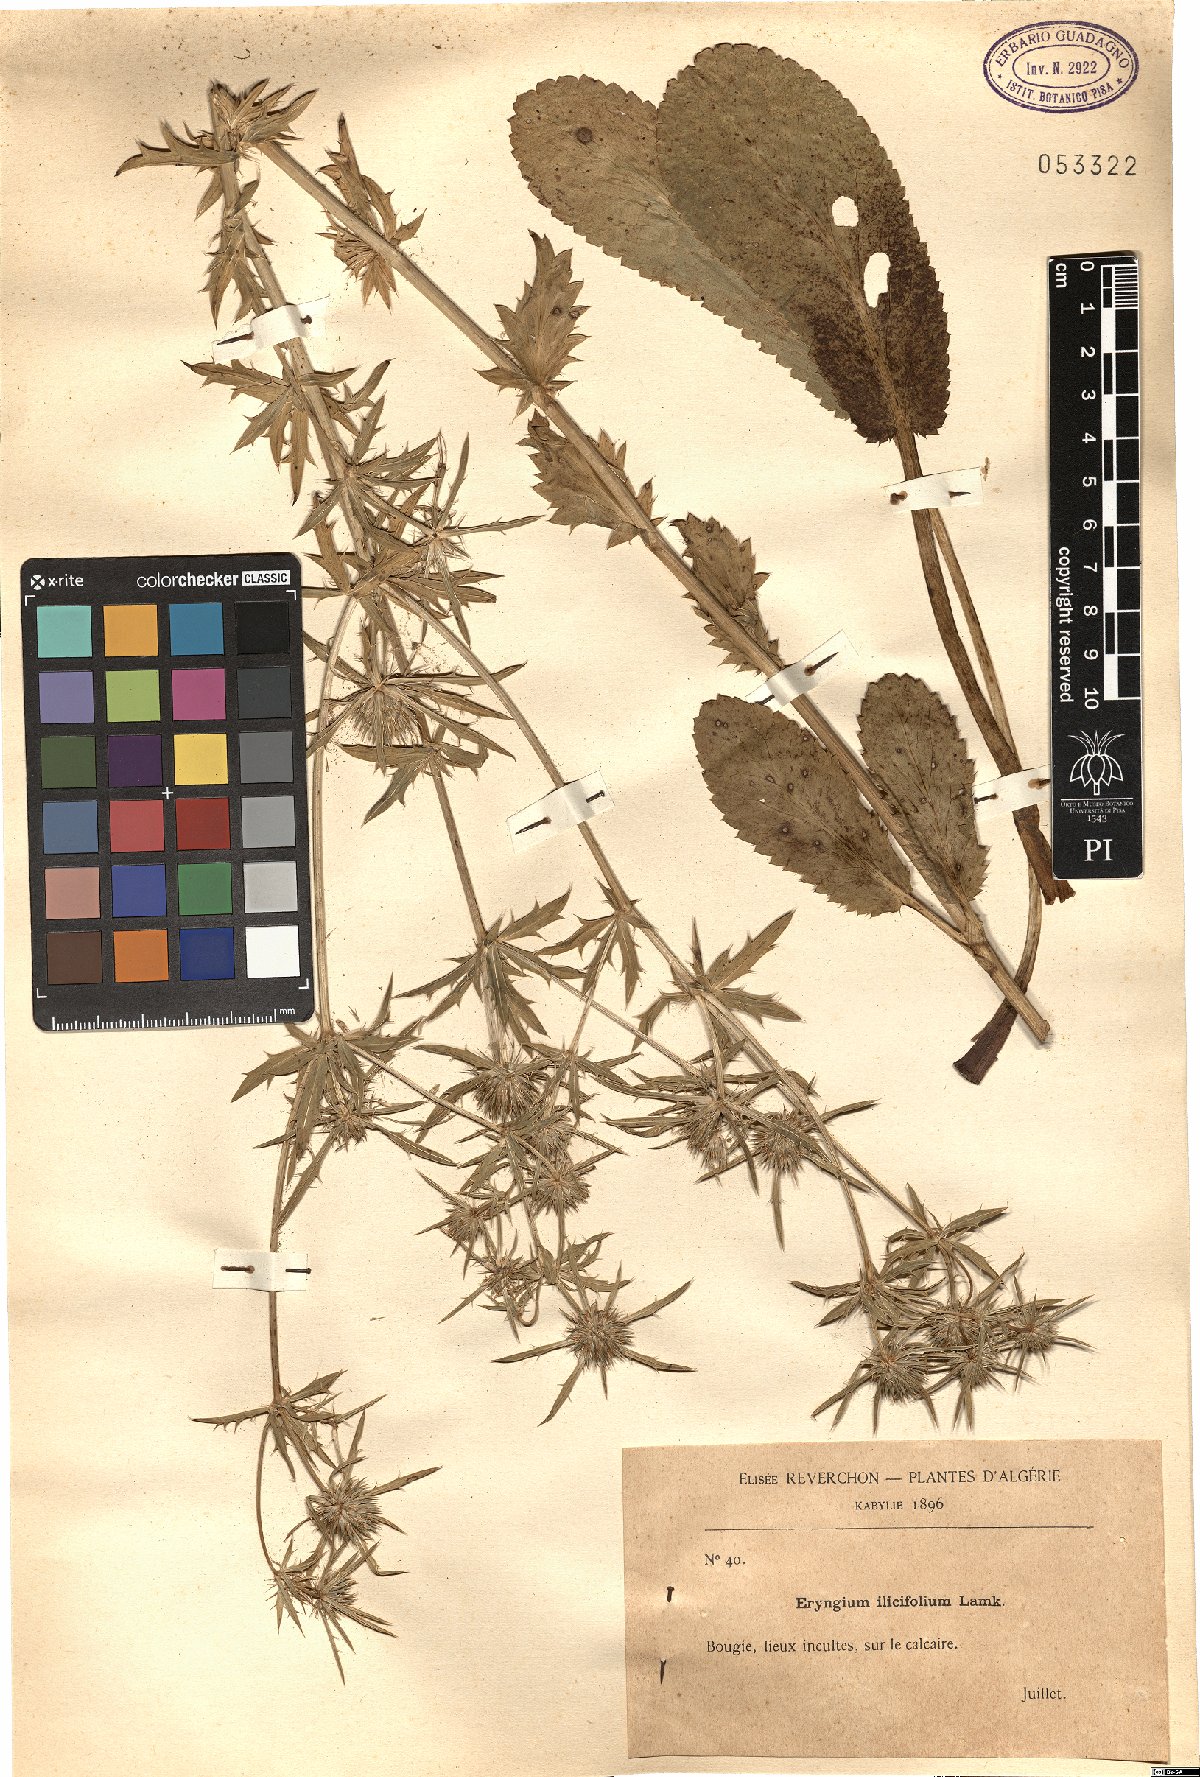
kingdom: Plantae
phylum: Tracheophyta
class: Magnoliopsida
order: Apiales
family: Apiaceae
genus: Eryngium
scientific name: Eryngium ilicifolium
